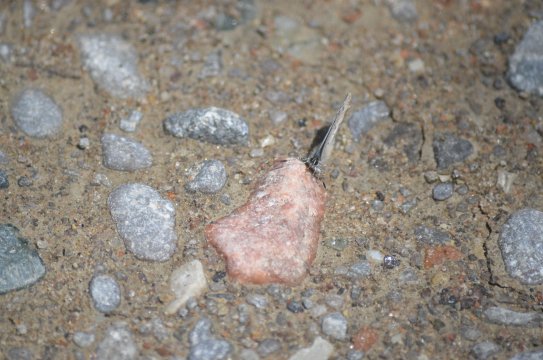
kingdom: Animalia
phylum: Arthropoda
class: Insecta
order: Lepidoptera
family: Lycaenidae
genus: Celastrina
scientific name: Celastrina lucia
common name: Northern Spring Azure
